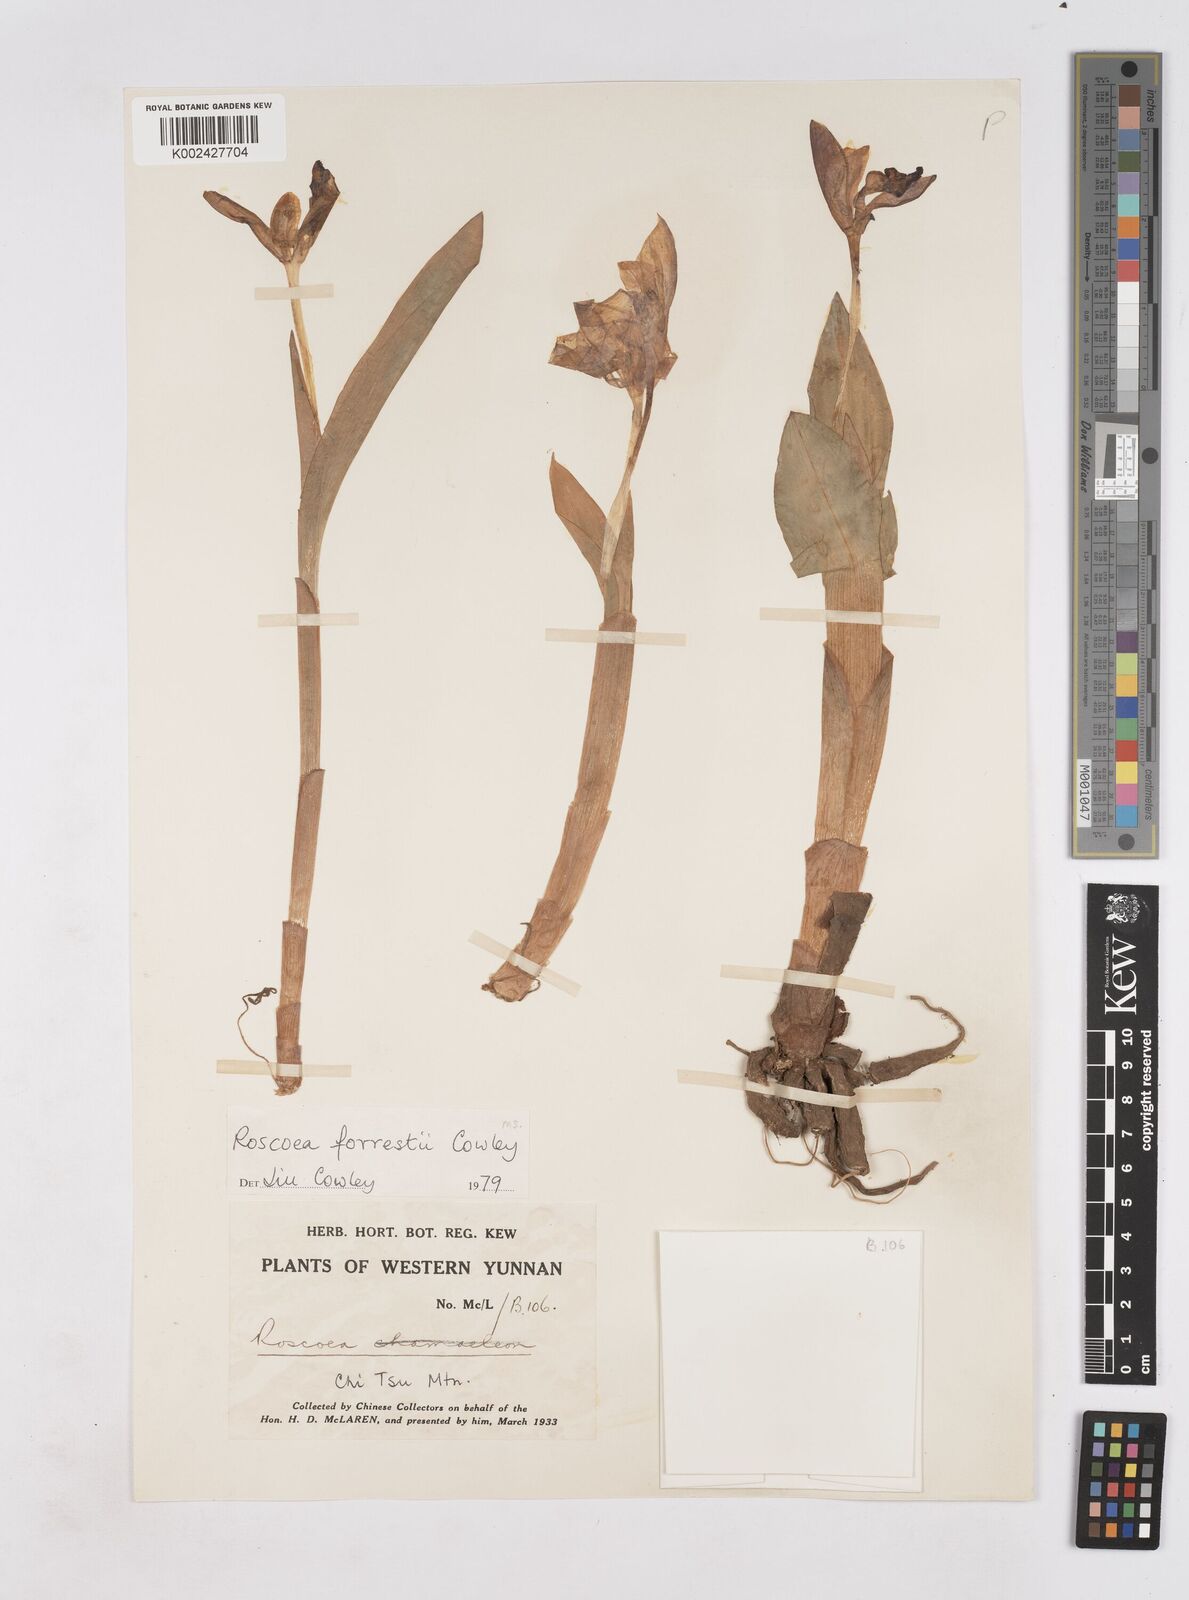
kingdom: Plantae
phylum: Tracheophyta
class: Liliopsida
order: Zingiberales
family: Zingiberaceae
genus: Roscoea
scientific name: Roscoea forrestii
